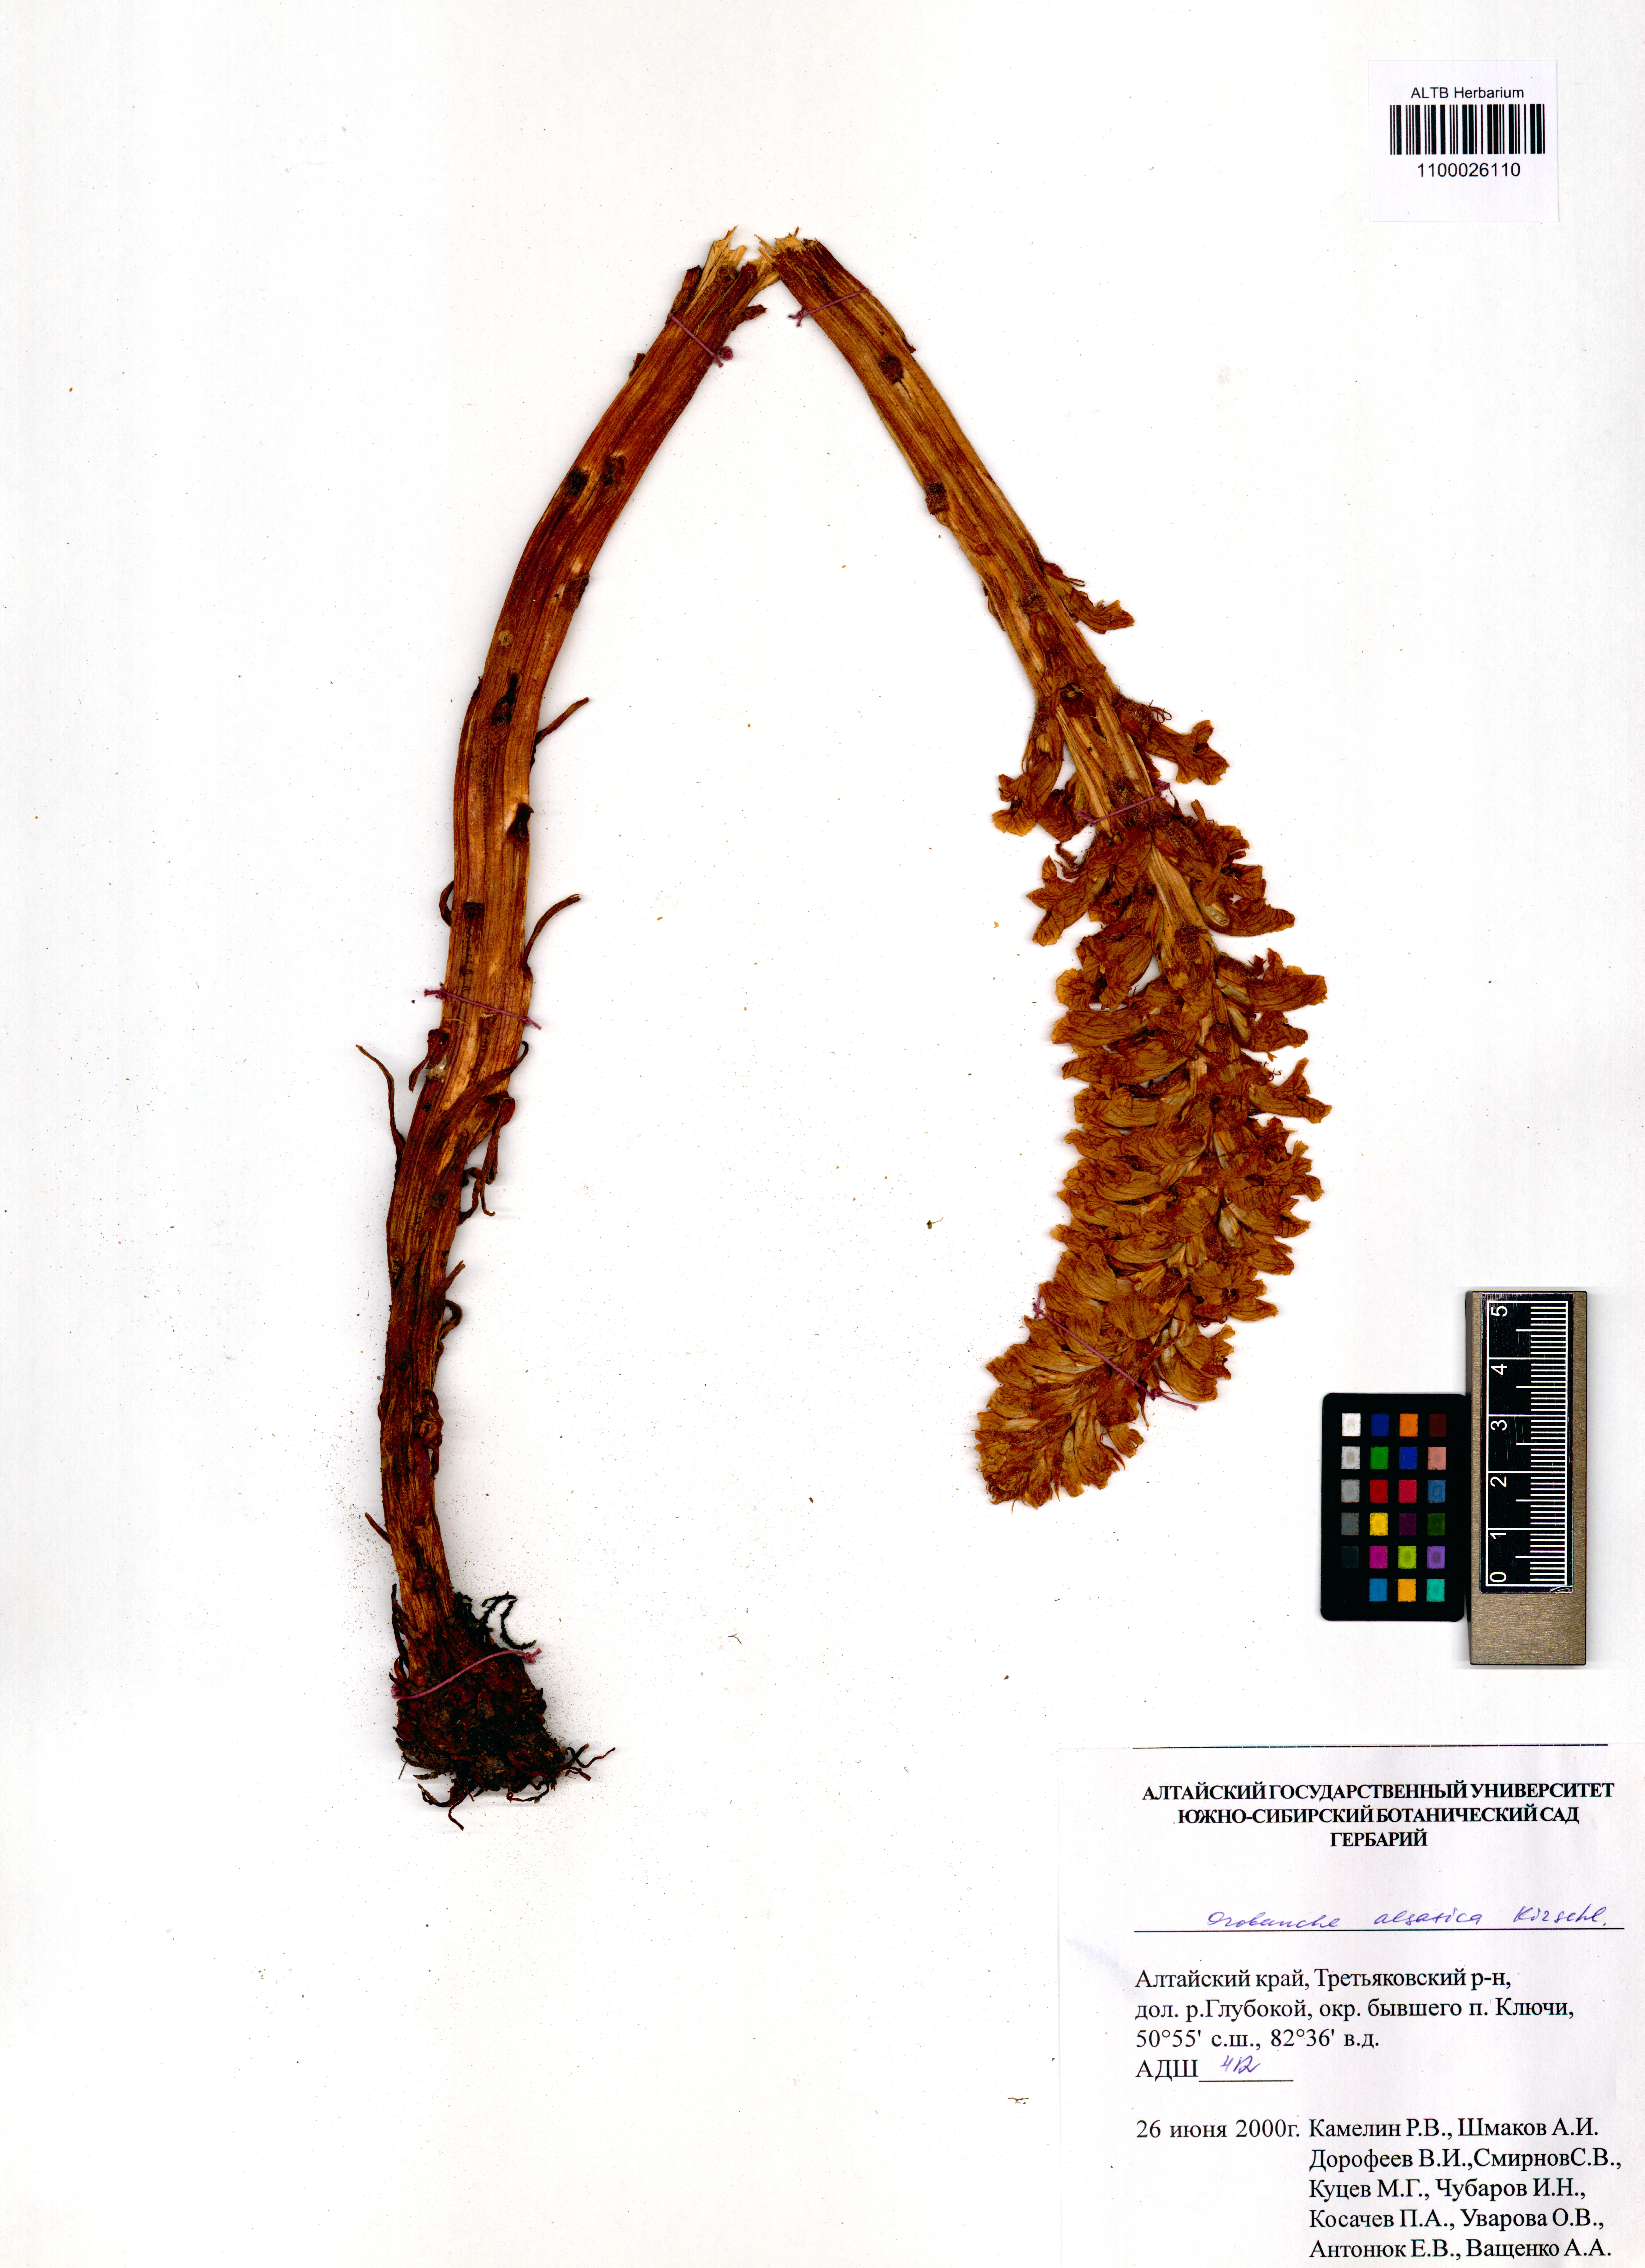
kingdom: Plantae
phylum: Tracheophyta
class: Magnoliopsida
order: Lamiales
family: Orobanchaceae
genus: Orobanche
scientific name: Orobanche alsatica
